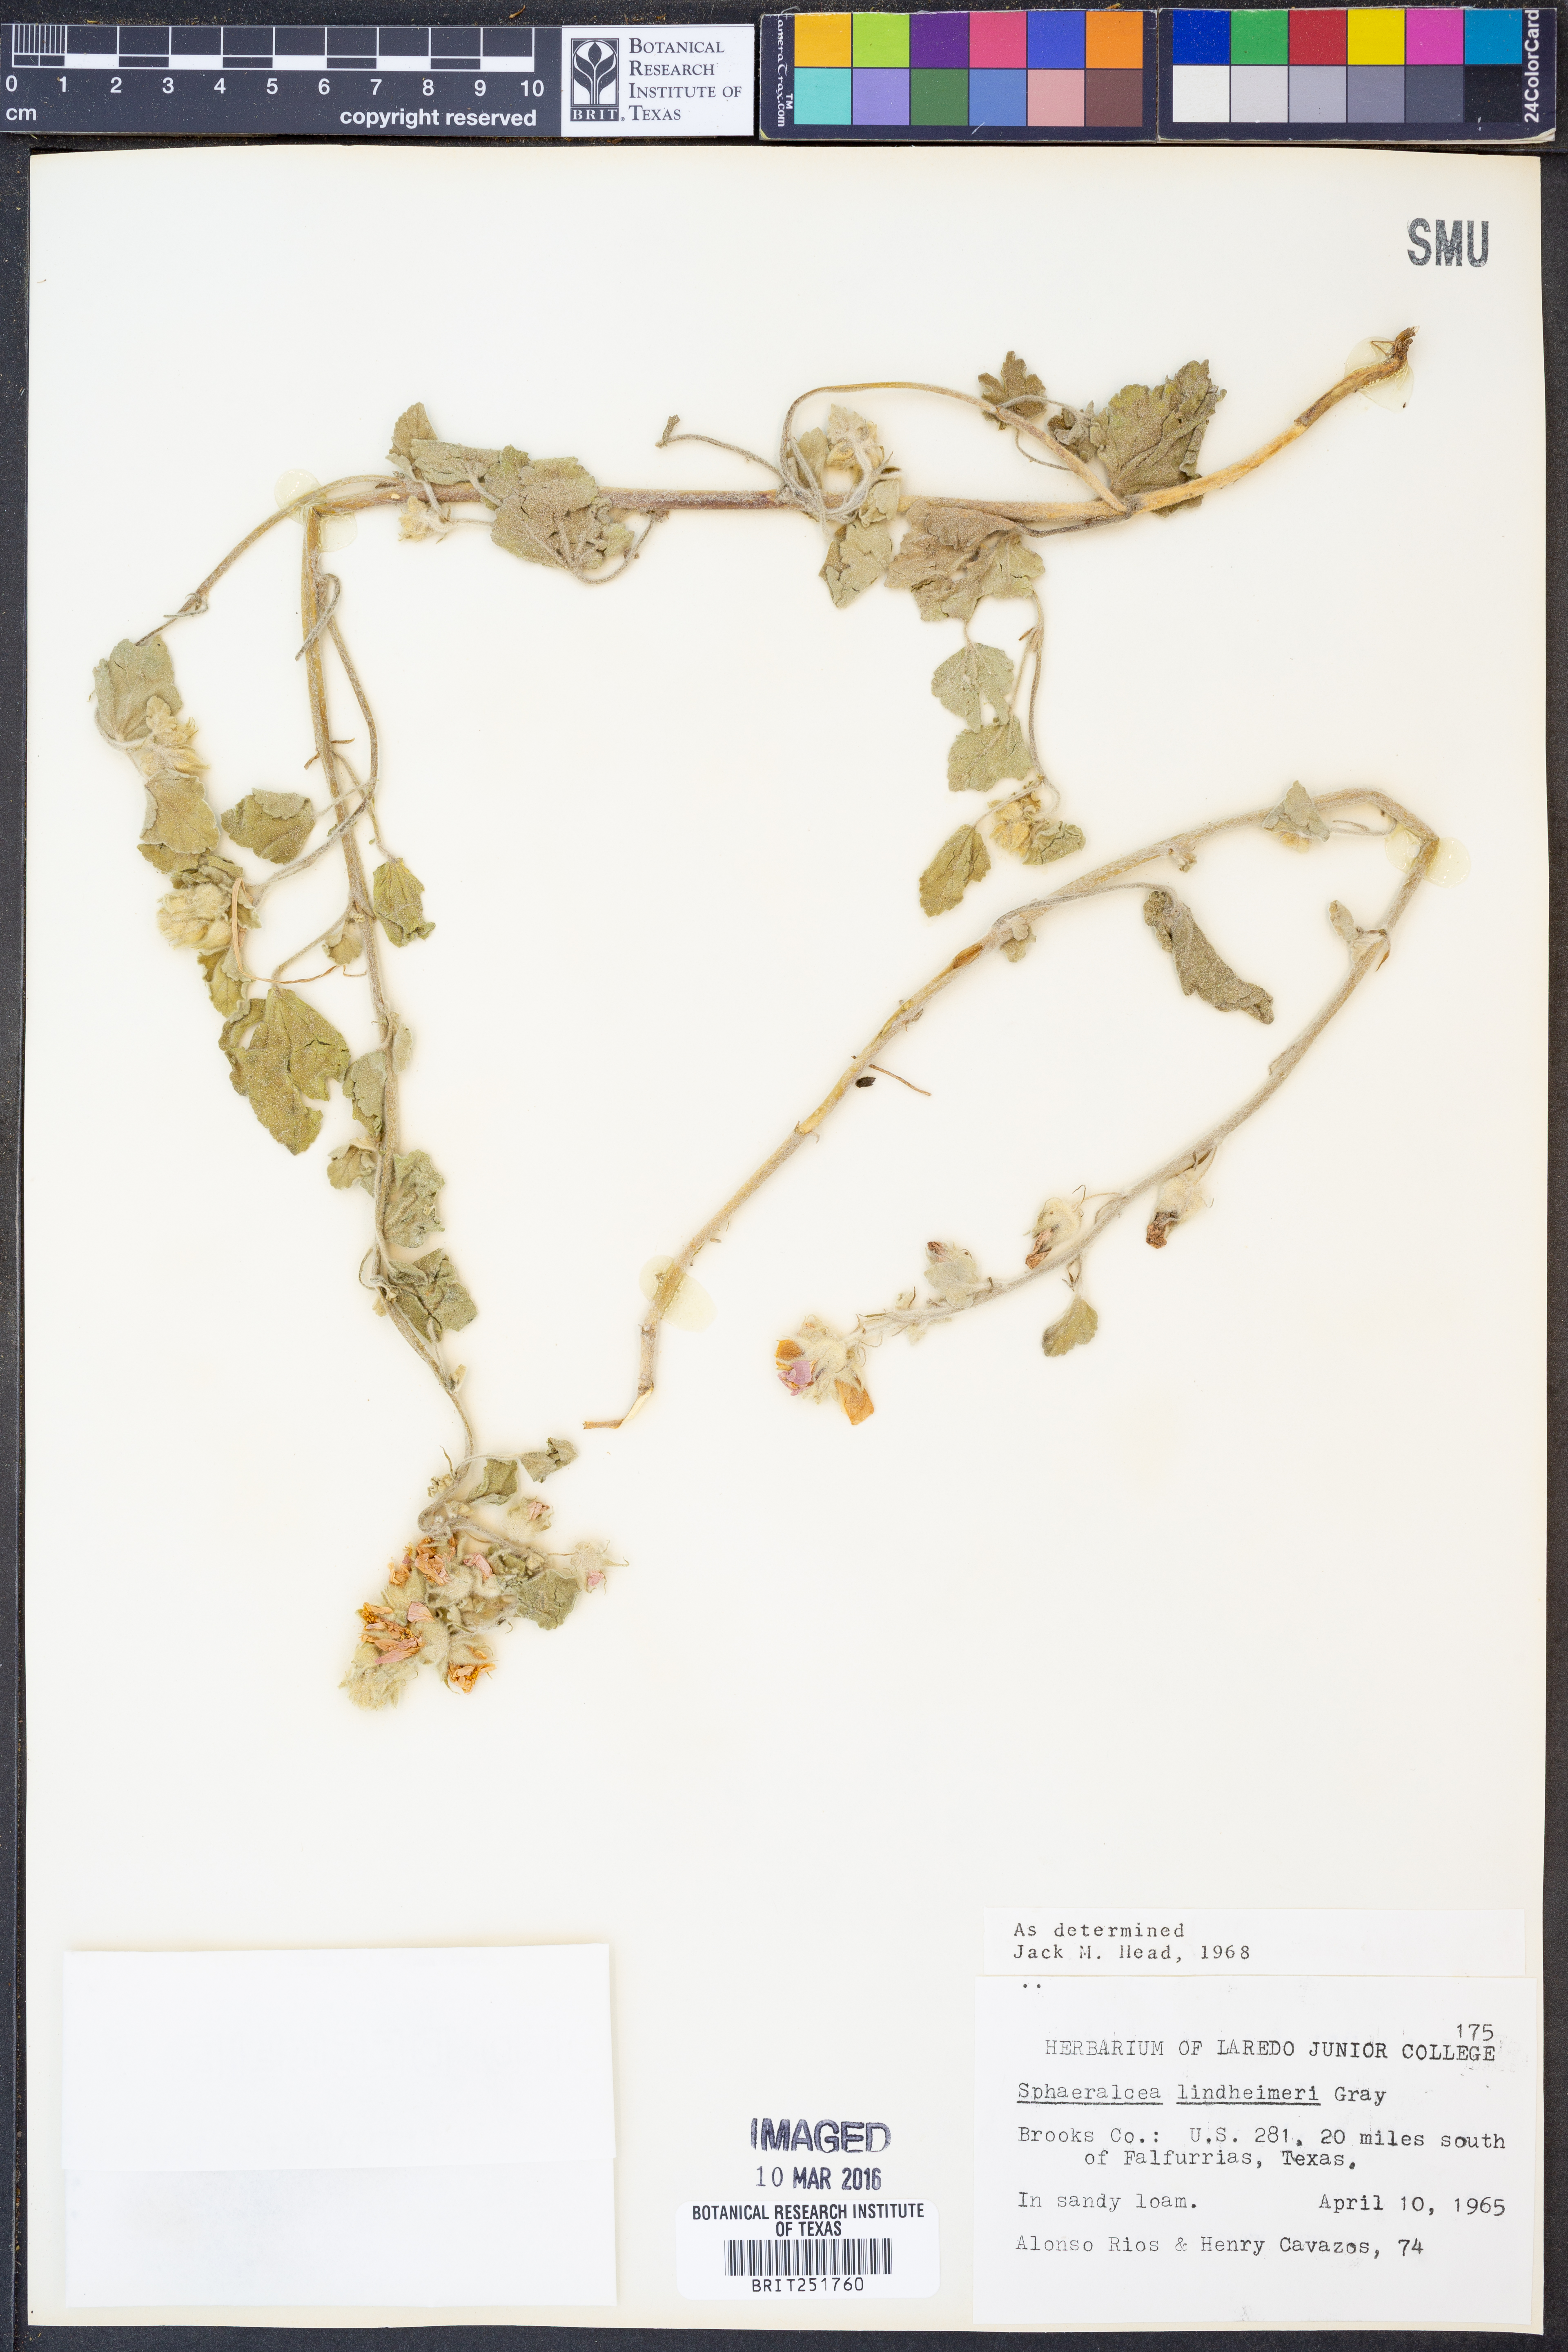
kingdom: Plantae
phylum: Tracheophyta
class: Magnoliopsida
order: Malvales
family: Malvaceae
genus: Sphaeralcea
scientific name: Sphaeralcea lindheimeri
